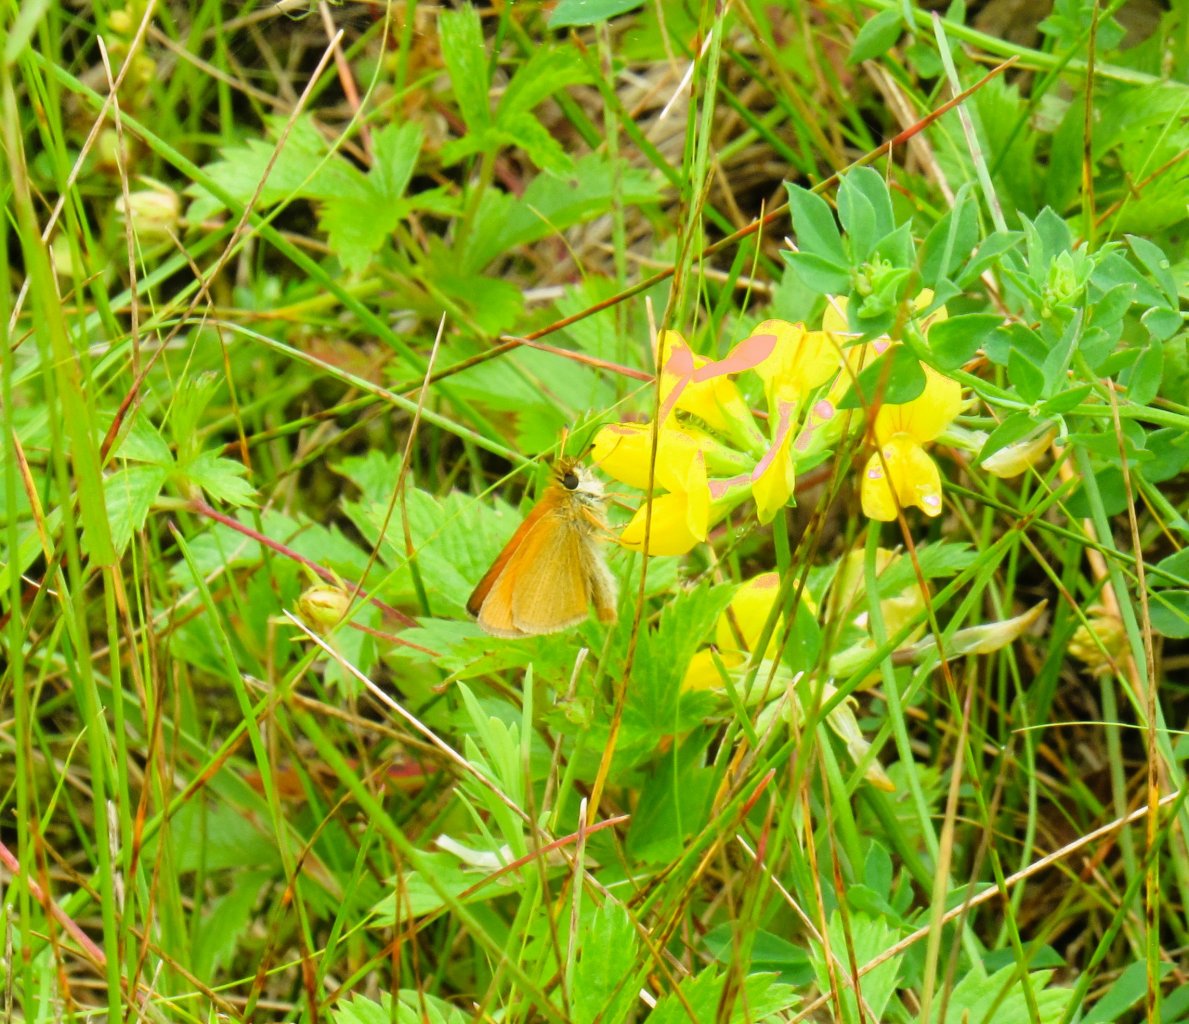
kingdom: Animalia
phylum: Arthropoda
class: Insecta
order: Lepidoptera
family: Hesperiidae
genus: Thymelicus
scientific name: Thymelicus lineola
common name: European Skipper
